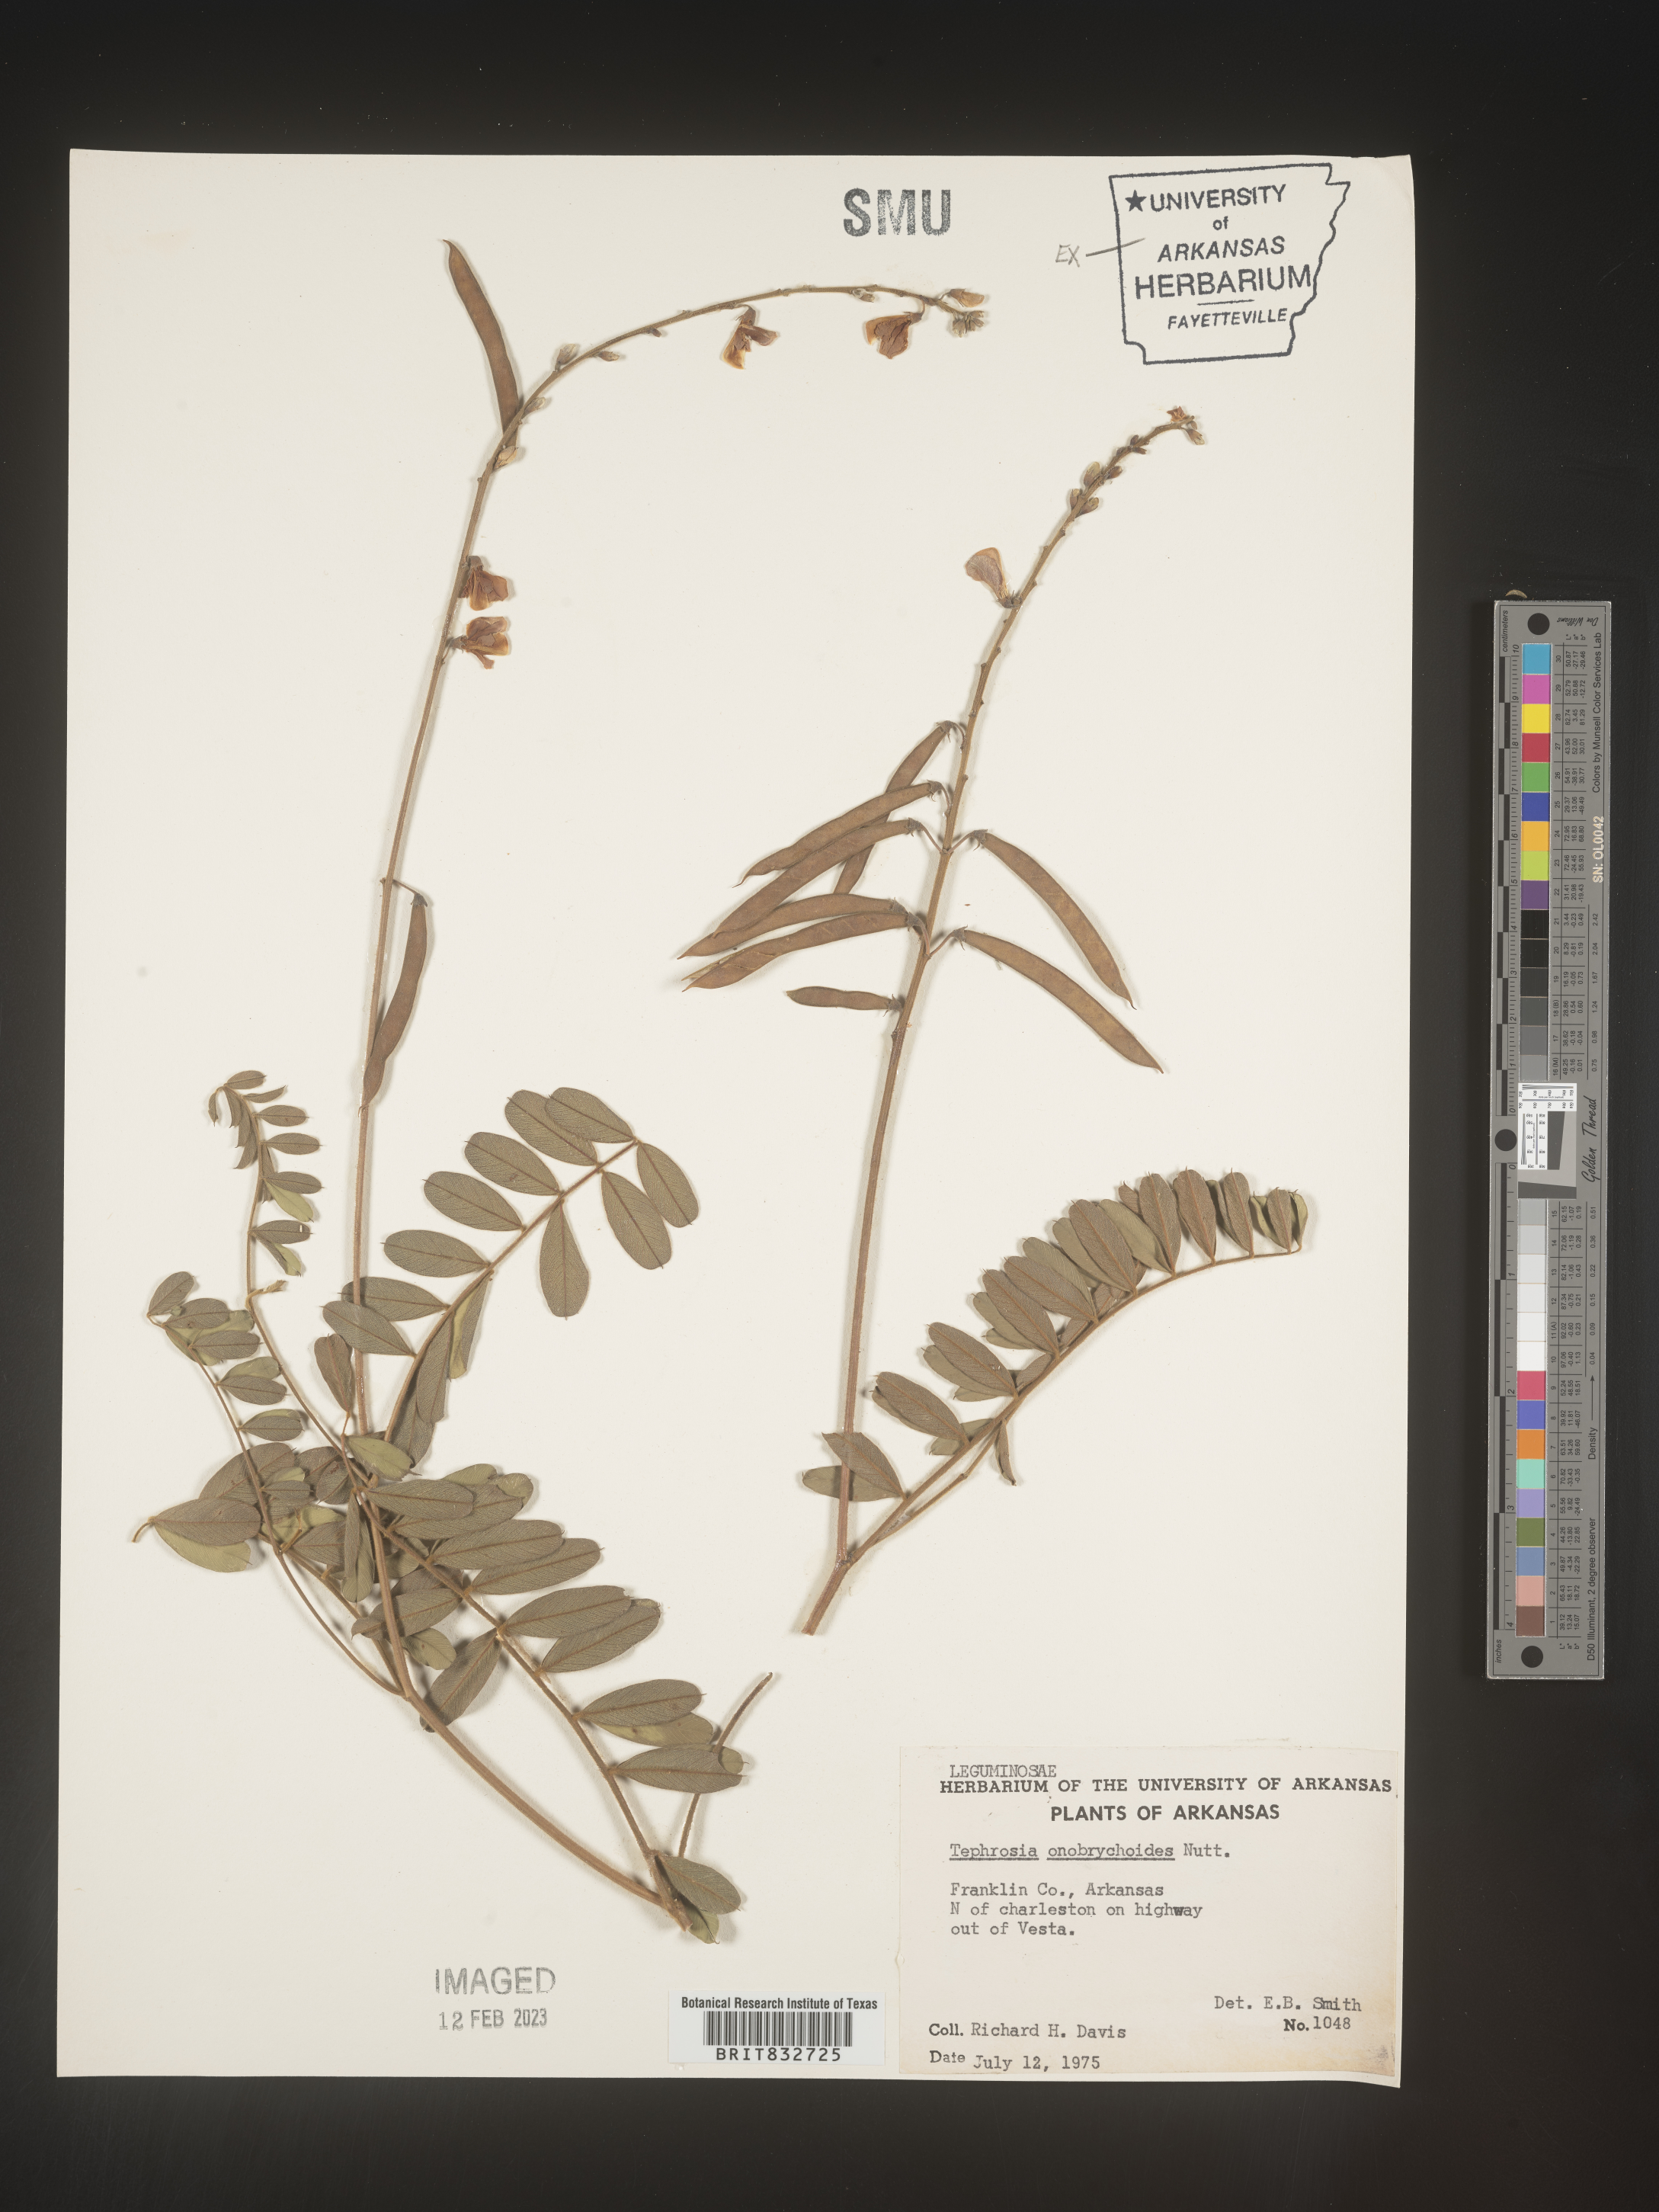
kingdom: Plantae
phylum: Tracheophyta
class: Magnoliopsida
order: Fabales
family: Fabaceae
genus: Tephrosia
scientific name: Tephrosia onobrychoides
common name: Multi-bloom hoary-pea
